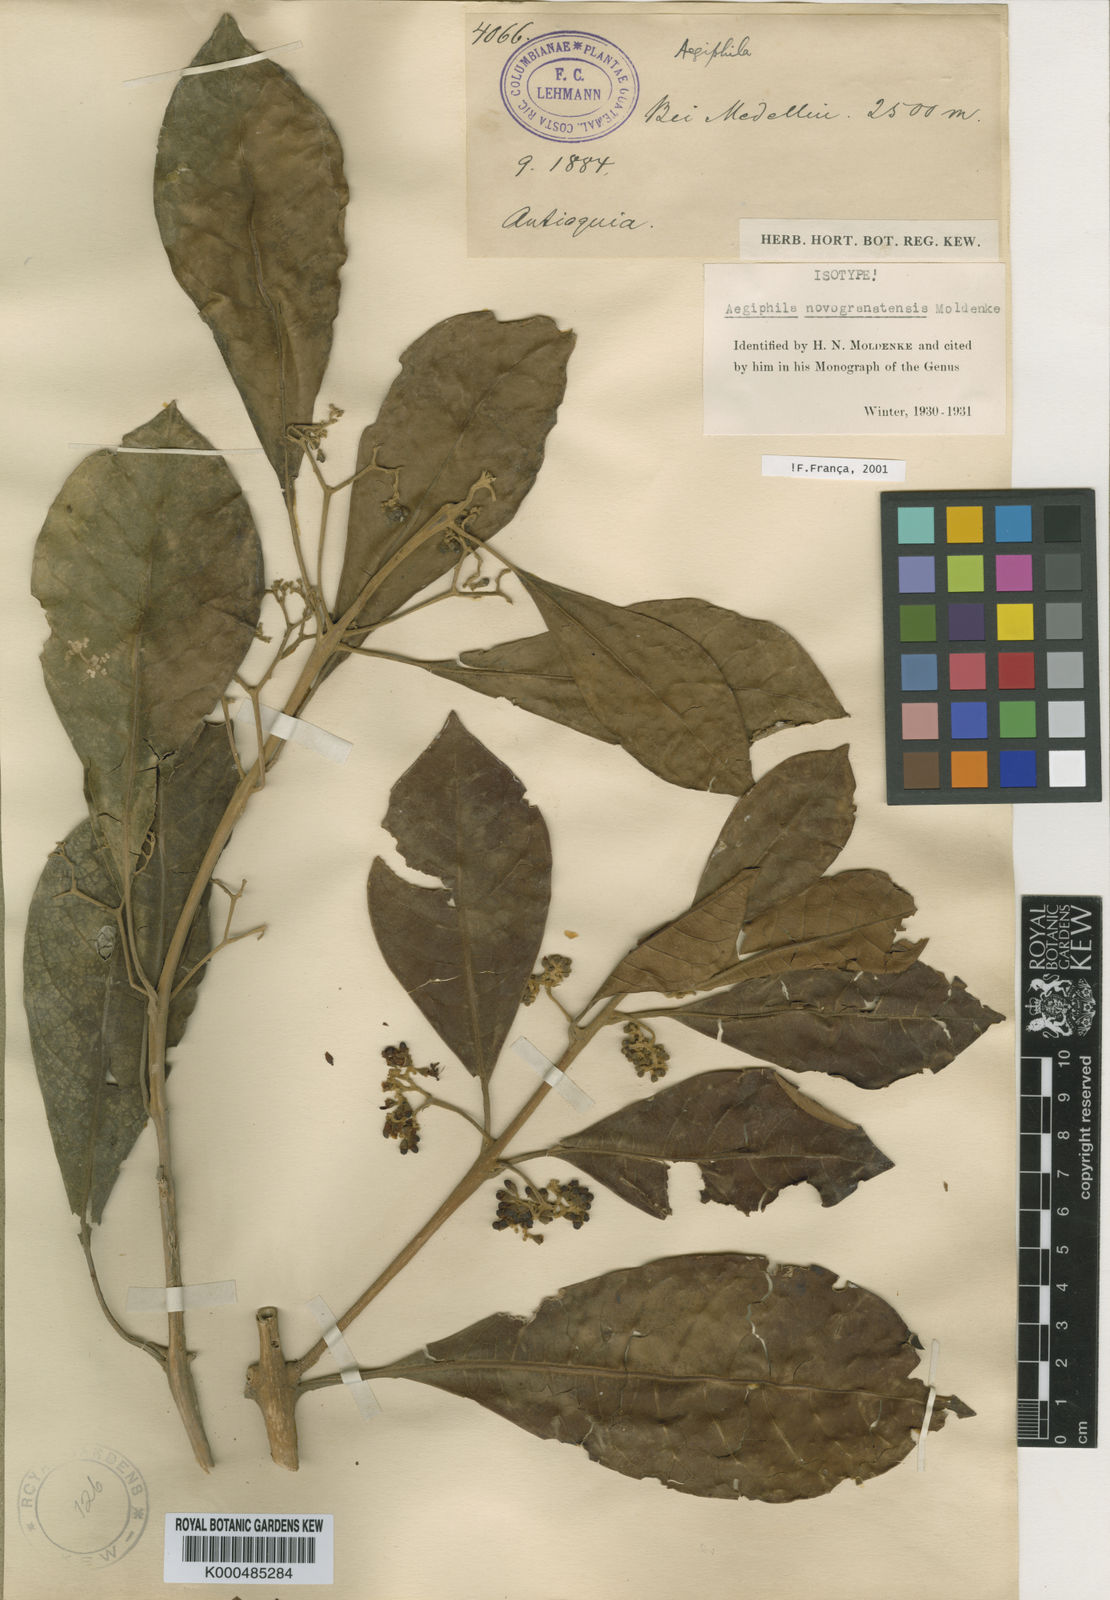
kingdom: Plantae
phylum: Tracheophyta
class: Magnoliopsida
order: Lamiales
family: Lamiaceae
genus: Aegiphila
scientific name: Aegiphila novogranatensis
